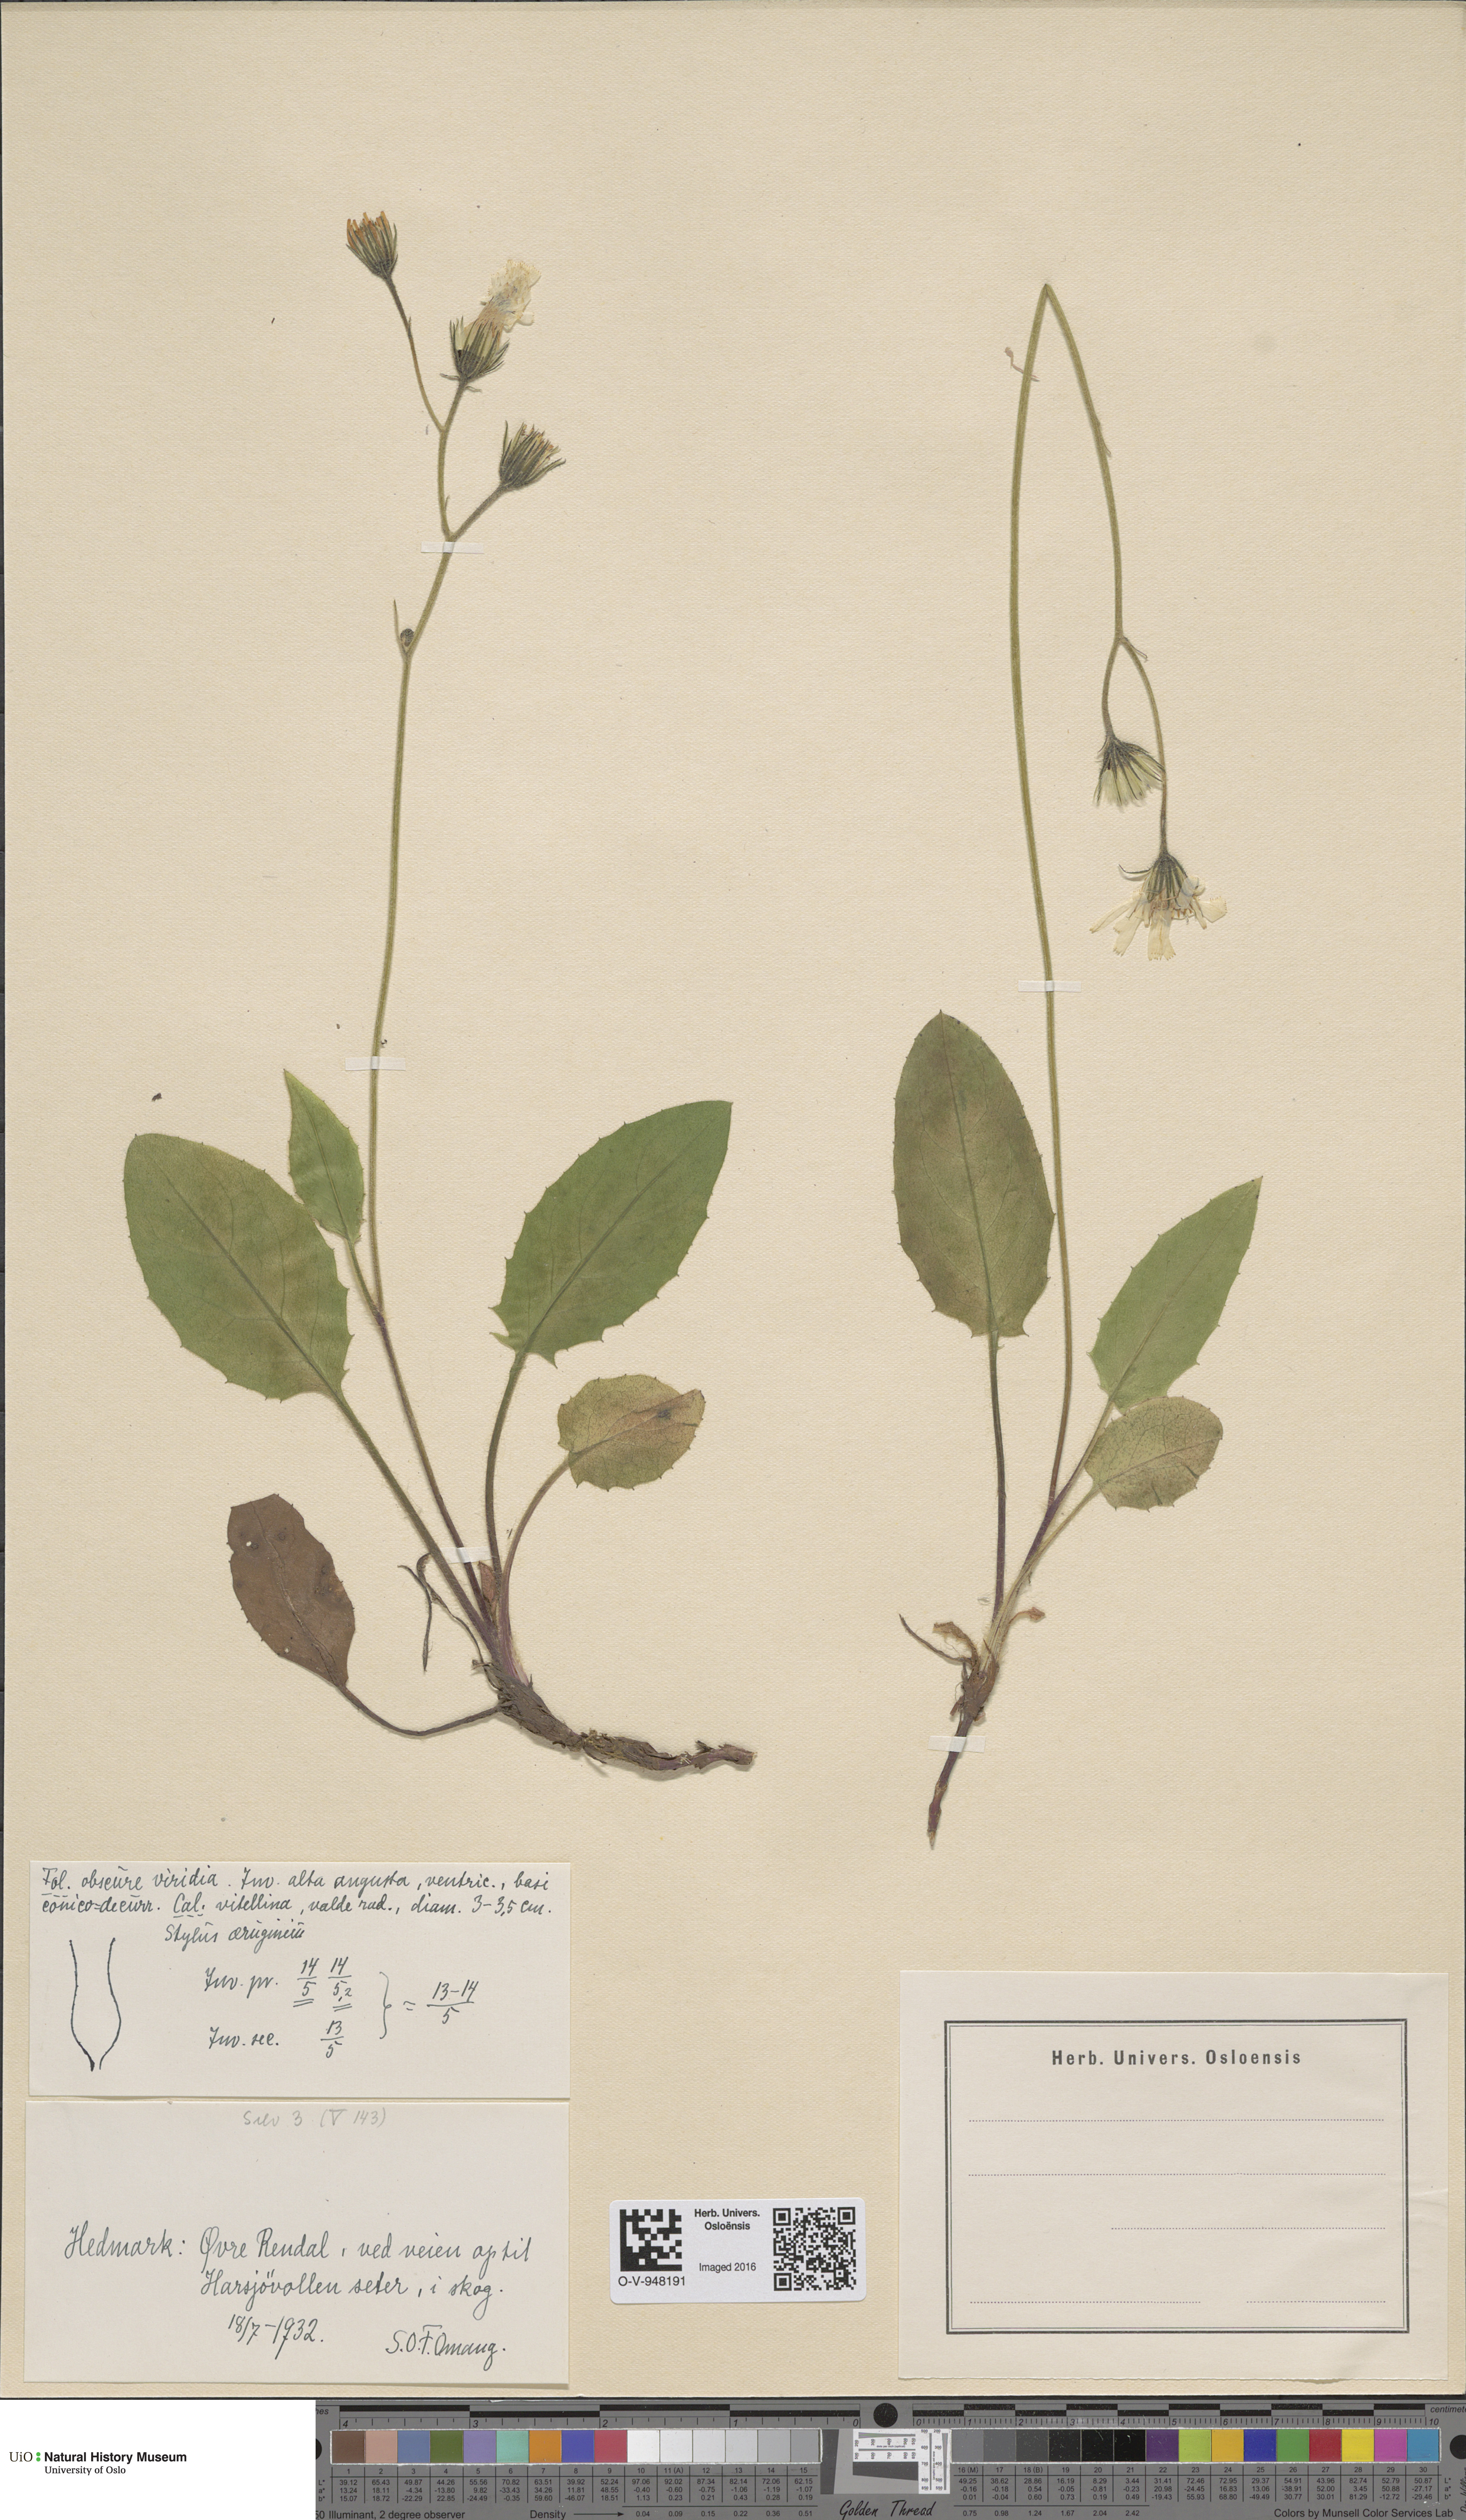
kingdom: Plantae
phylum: Tracheophyta
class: Magnoliopsida
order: Asterales
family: Asteraceae
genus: Hieracium
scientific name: Hieracium
